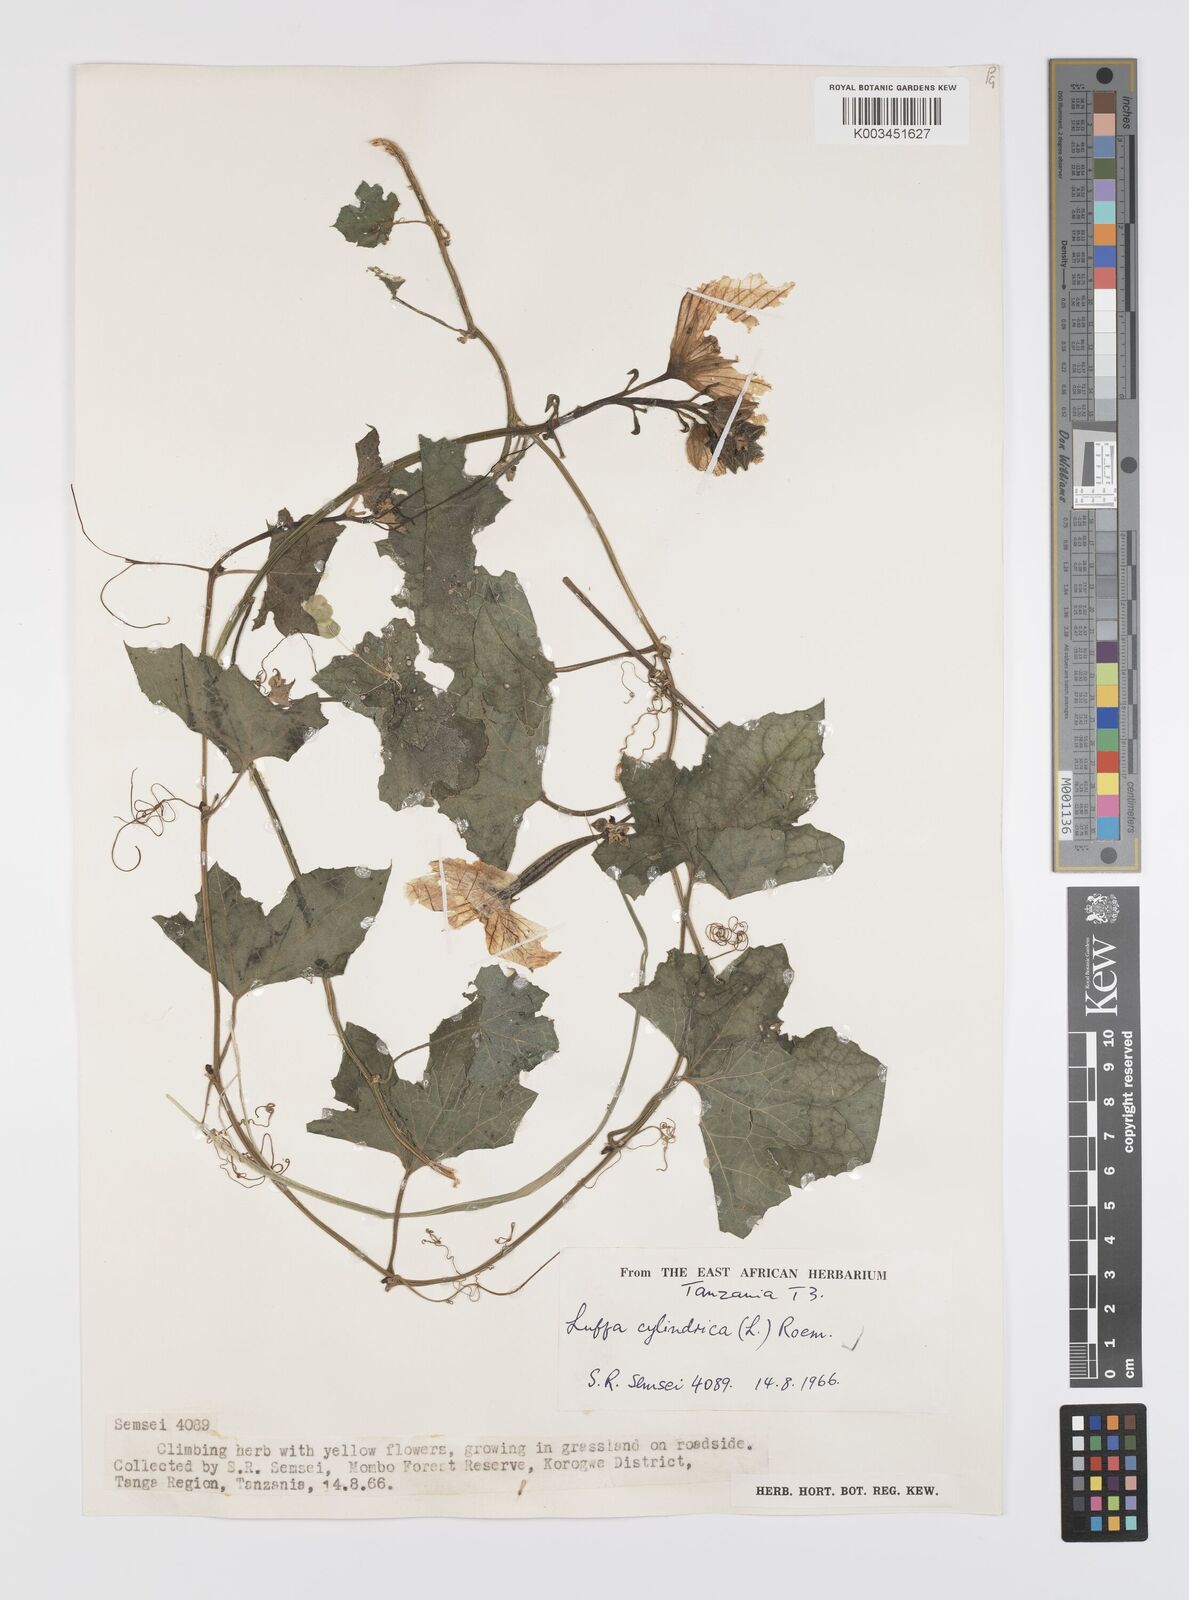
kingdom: Plantae
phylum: Tracheophyta
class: Magnoliopsida
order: Cucurbitales
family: Cucurbitaceae
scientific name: Cucurbitaceae
